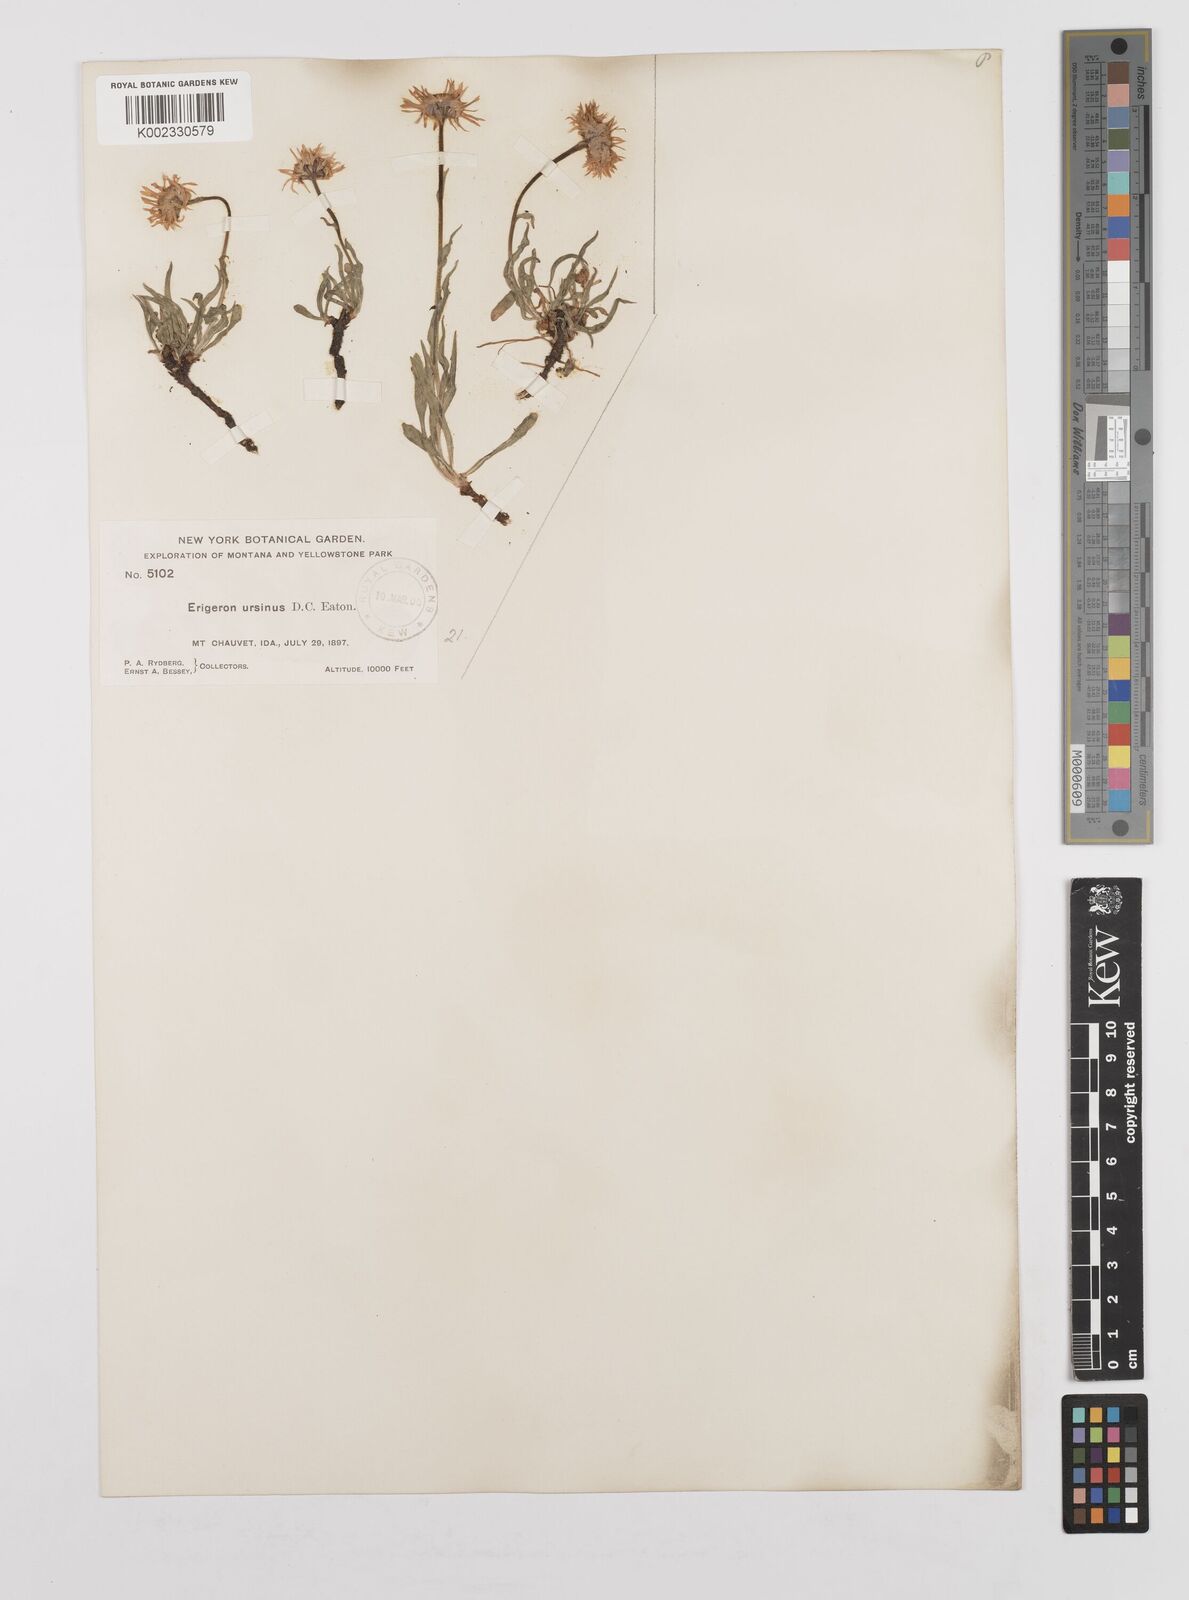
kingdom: Plantae
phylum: Tracheophyta
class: Magnoliopsida
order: Asterales
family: Asteraceae
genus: Erigeron
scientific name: Erigeron ursinus
